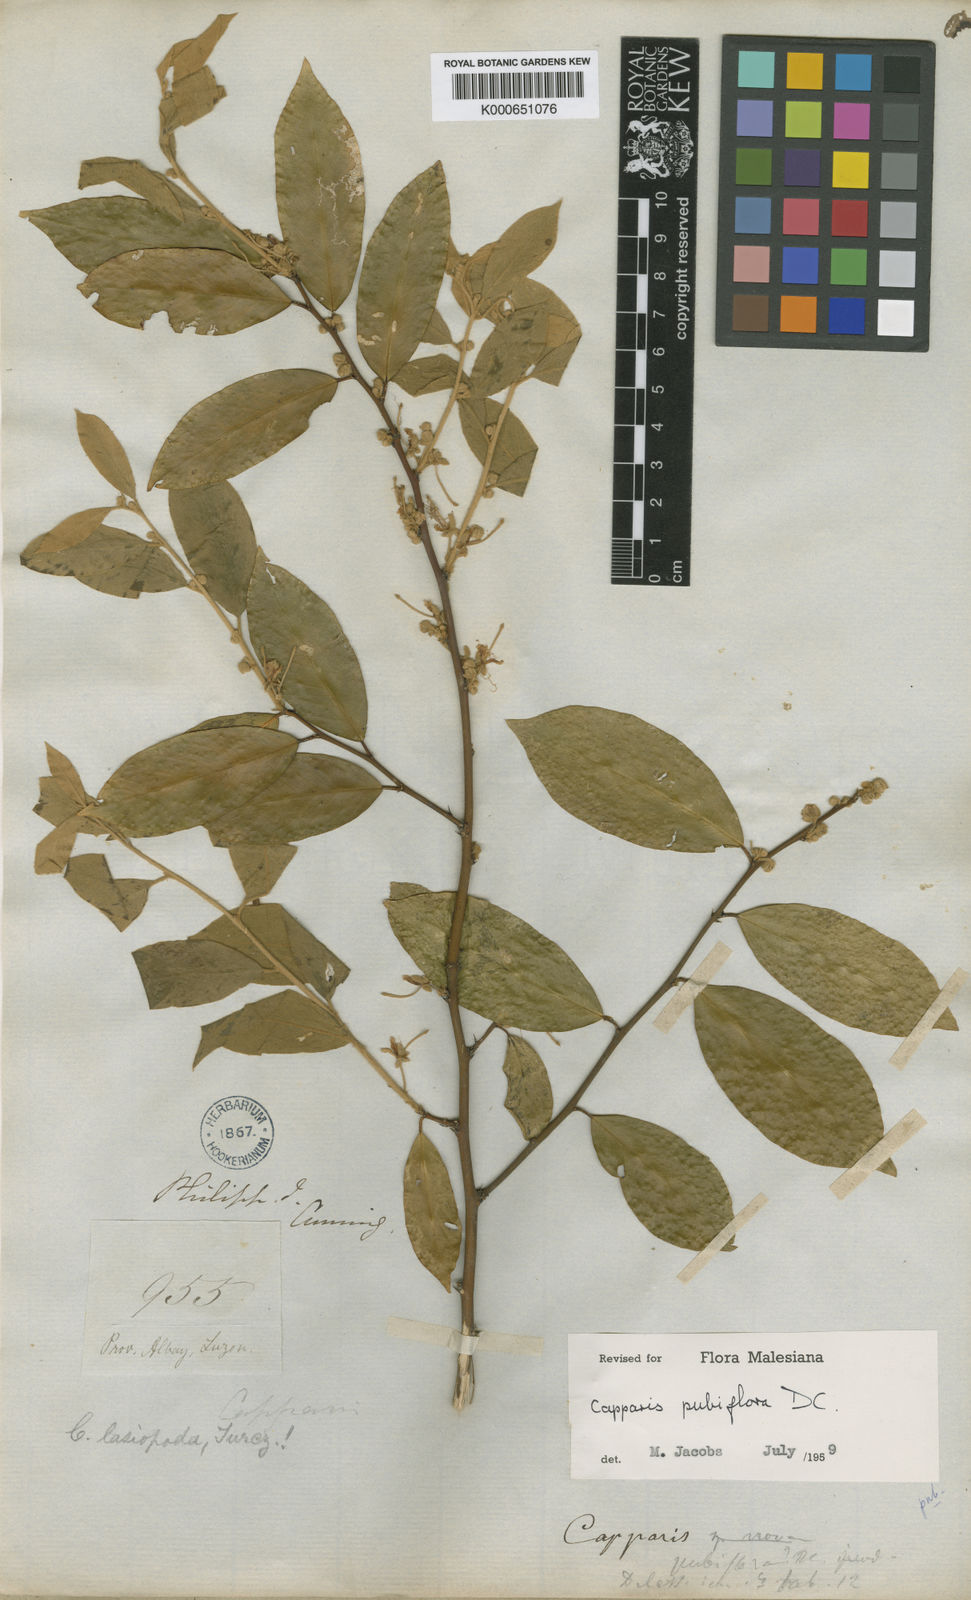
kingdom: Plantae
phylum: Tracheophyta
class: Magnoliopsida
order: Brassicales
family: Capparaceae
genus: Capparis
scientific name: Capparis pubiflora
